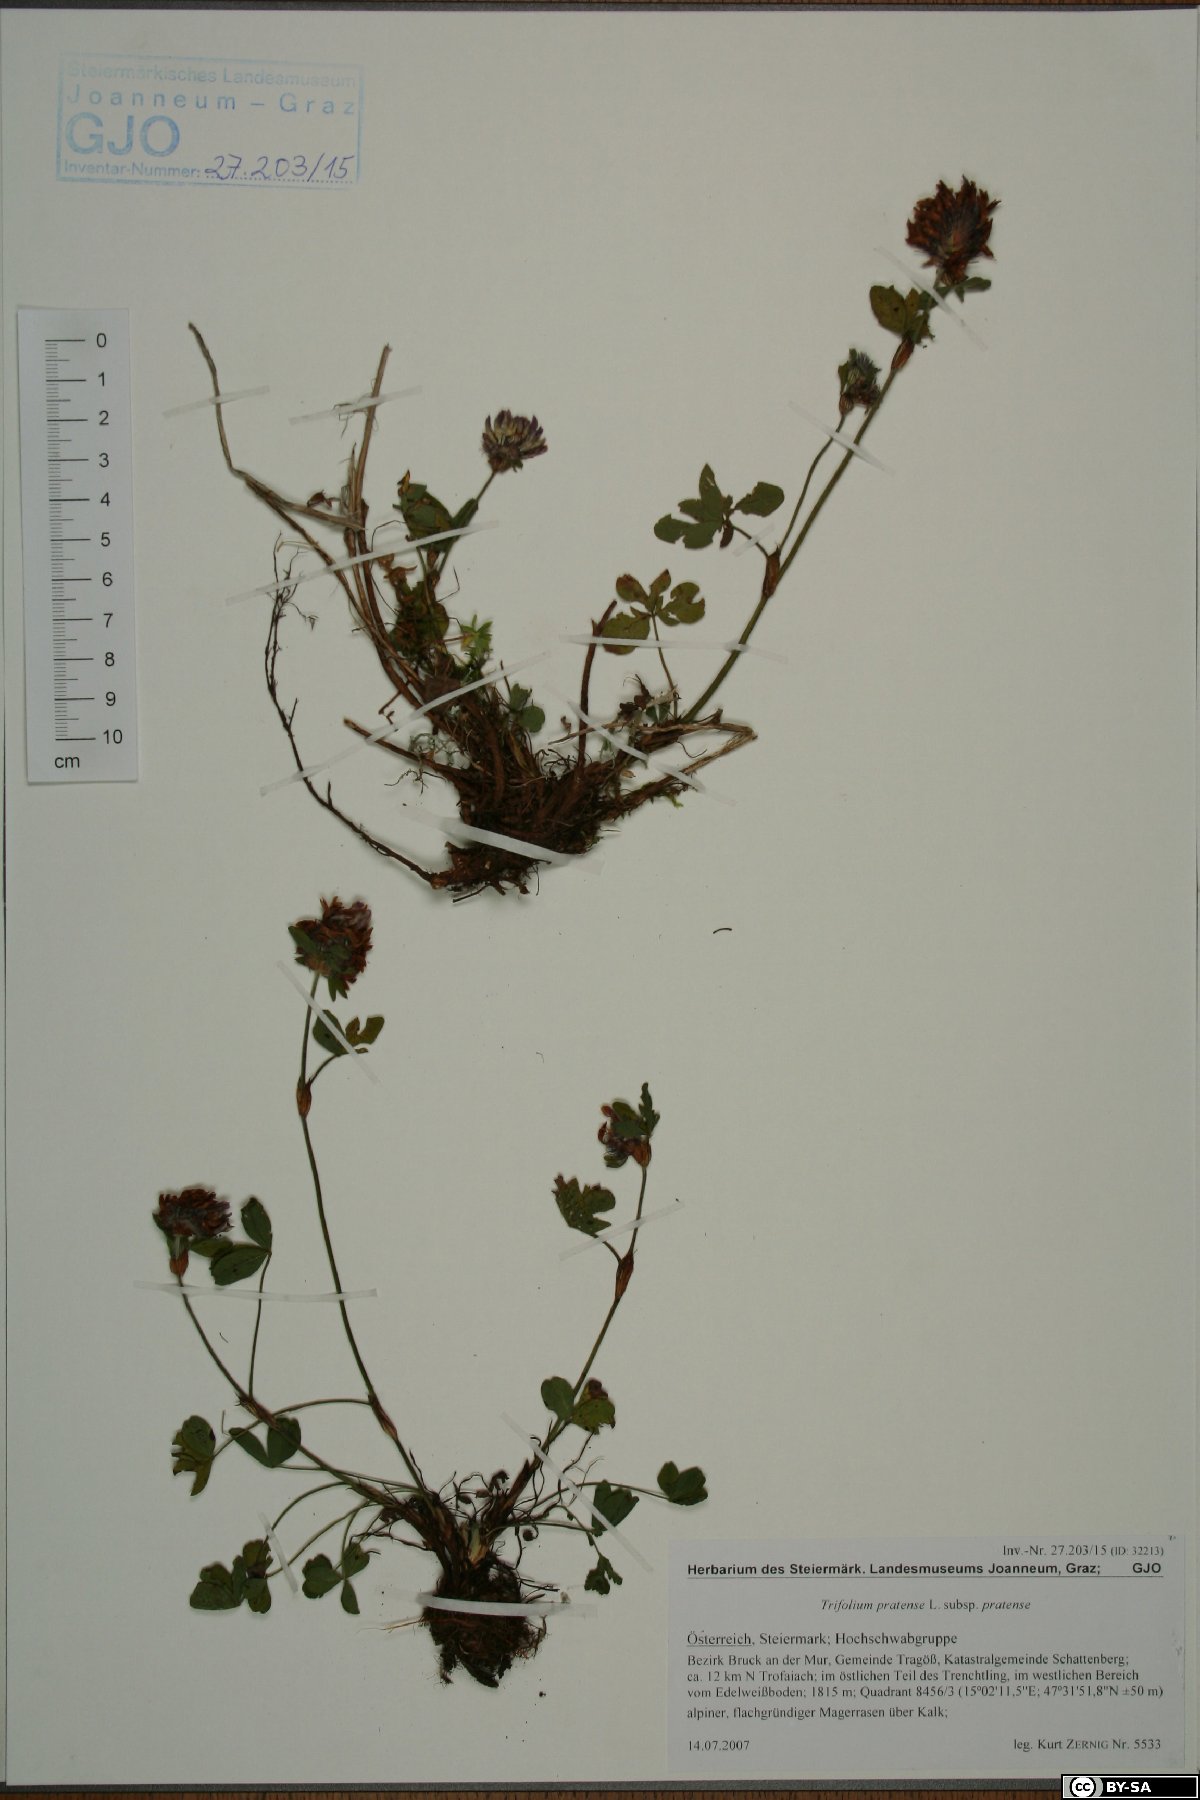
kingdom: Plantae
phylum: Tracheophyta
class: Magnoliopsida
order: Fabales
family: Fabaceae
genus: Trifolium
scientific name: Trifolium pratense
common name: Red clover
